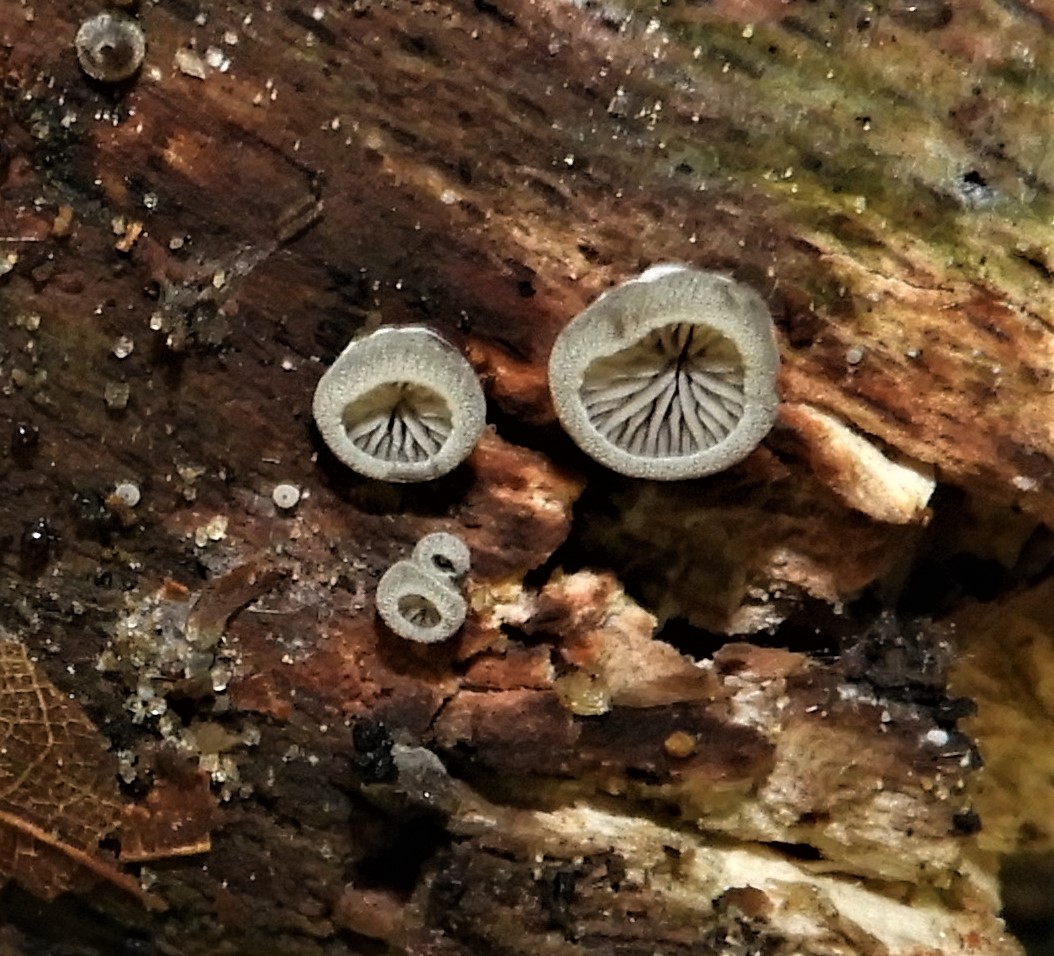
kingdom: Fungi
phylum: Basidiomycota
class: Agaricomycetes
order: Agaricales
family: Pleurotaceae
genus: Resupinatus
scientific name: Resupinatus applicatus
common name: lysfiltet barkhat
